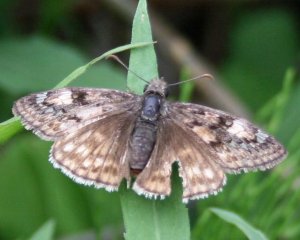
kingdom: Animalia
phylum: Arthropoda
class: Insecta
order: Lepidoptera
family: Hesperiidae
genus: Gesta
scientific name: Gesta
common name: Juvenal's Duskywing
